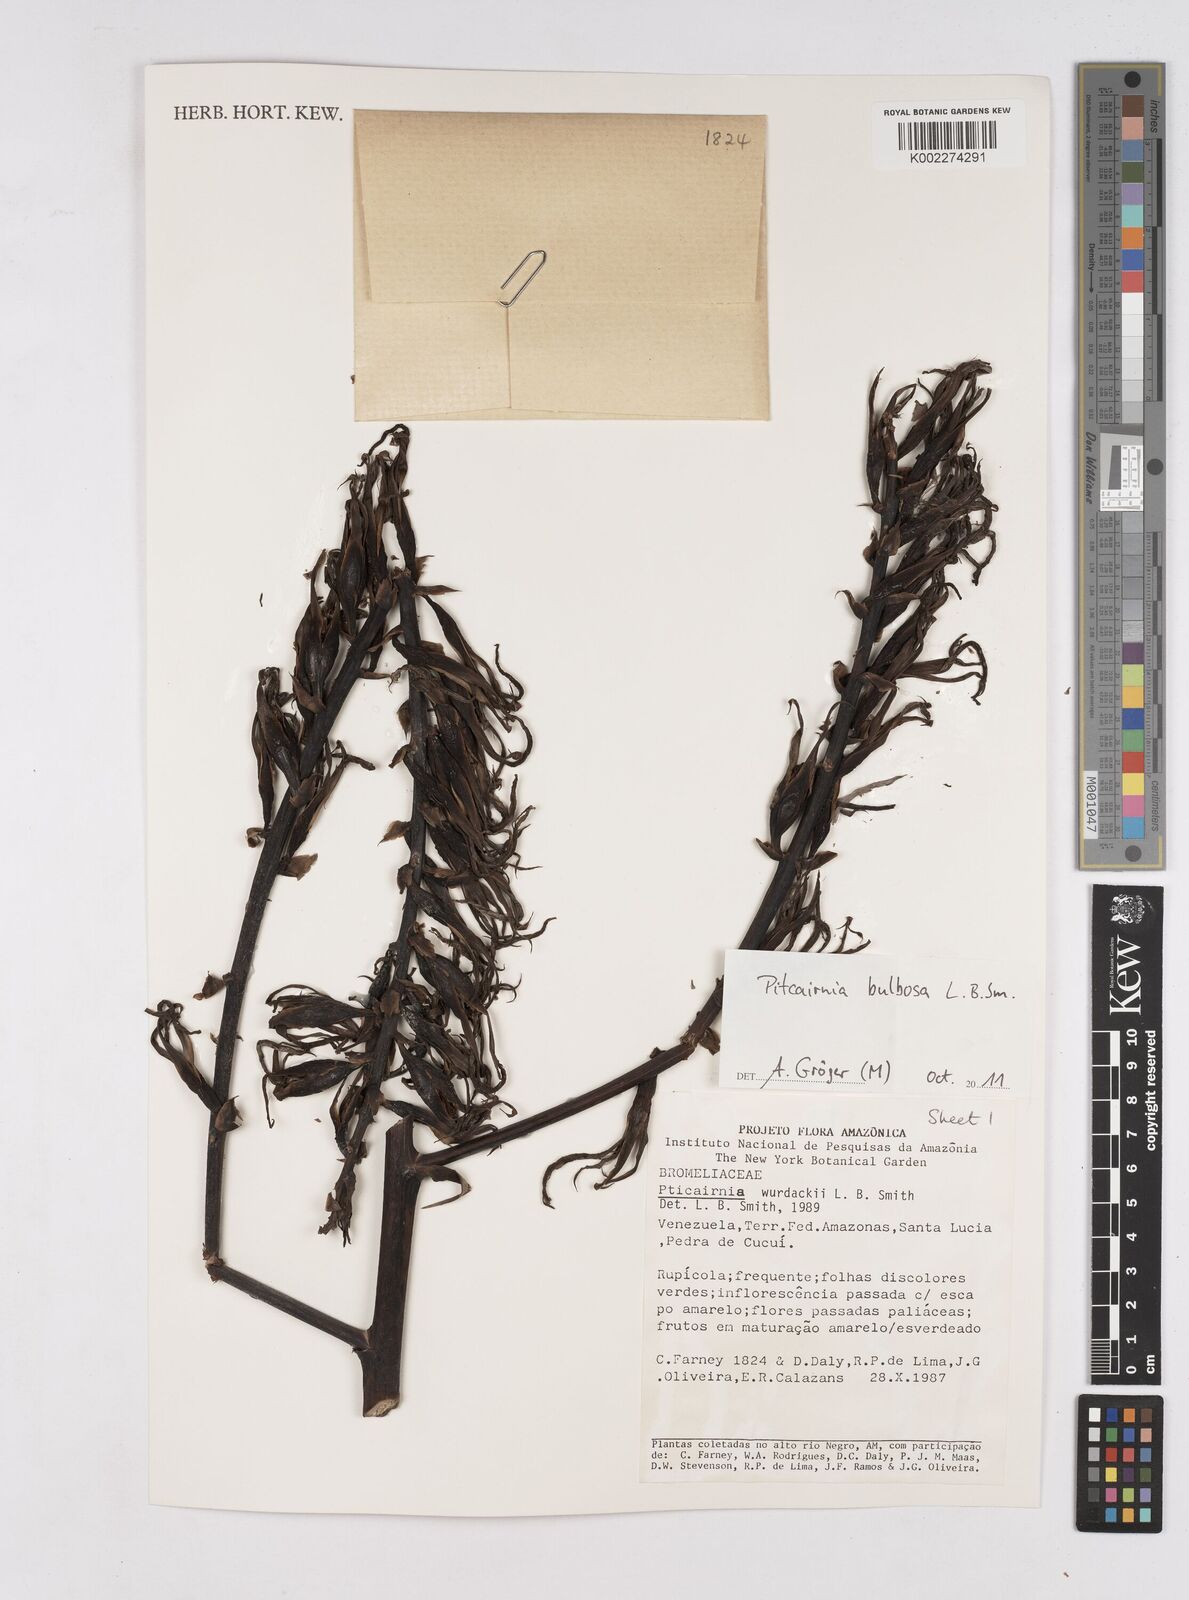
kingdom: Plantae
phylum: Tracheophyta
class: Liliopsida
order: Poales
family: Bromeliaceae
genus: Pitcairnia
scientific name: Pitcairnia bulbosa
